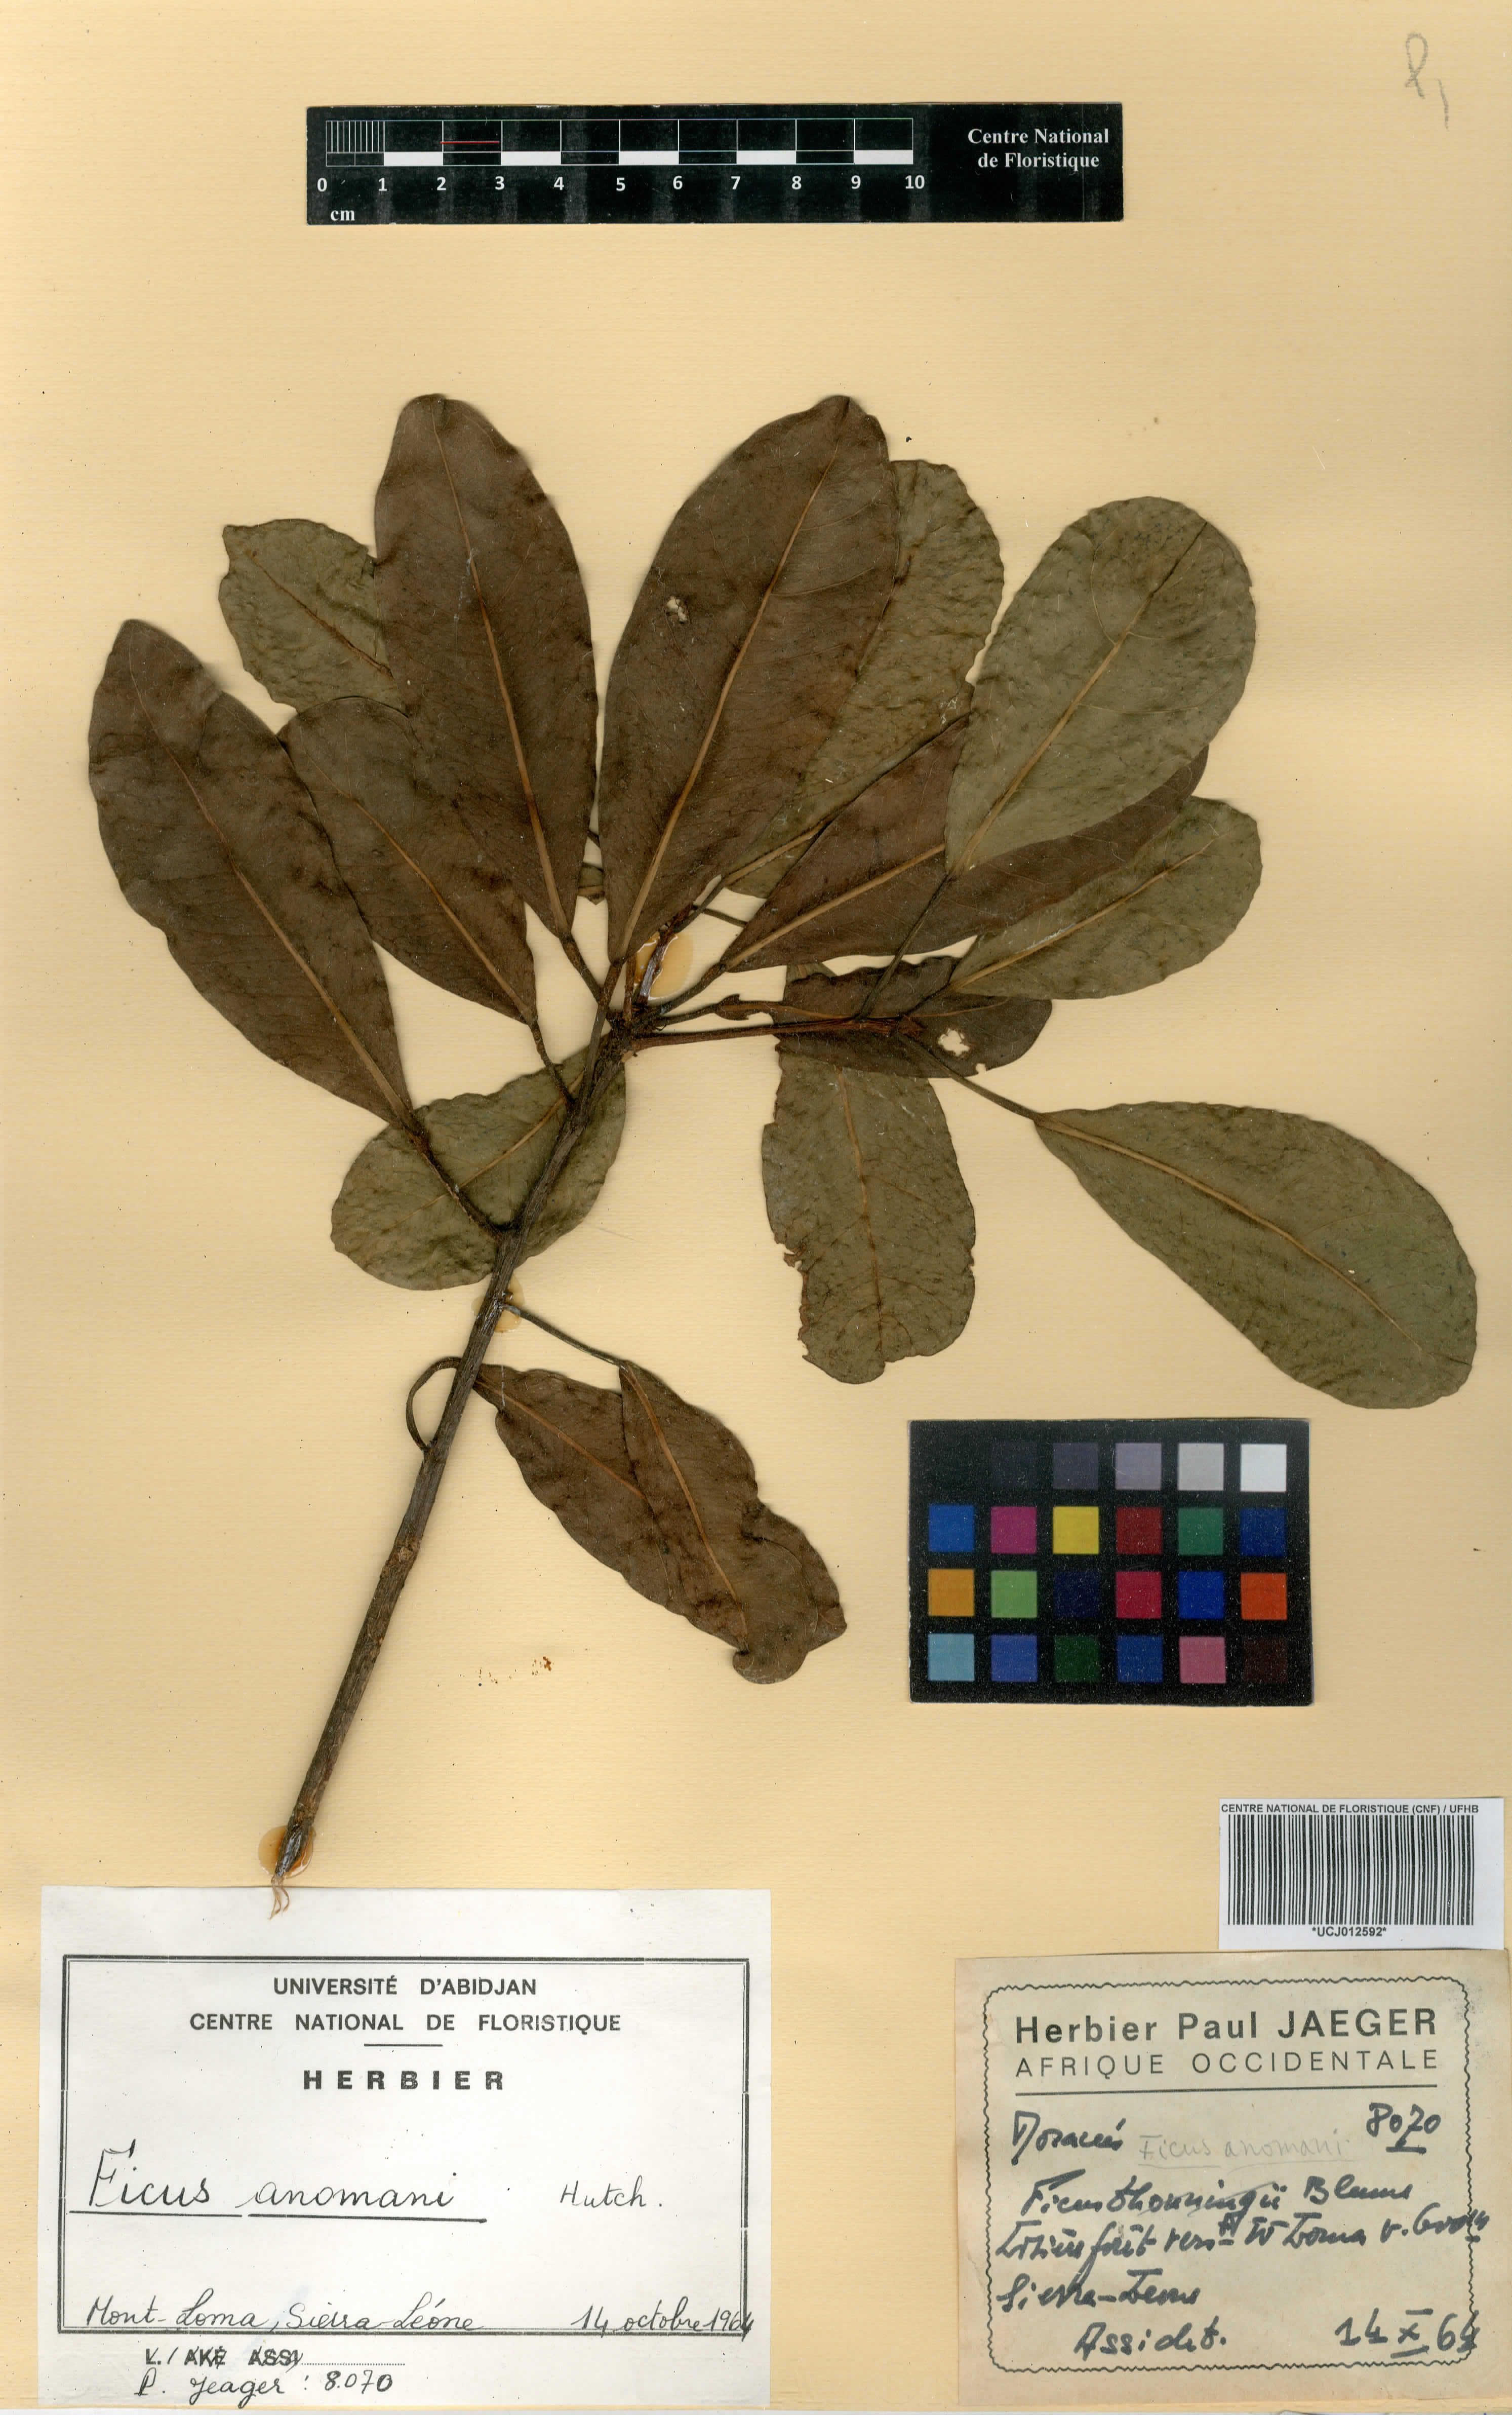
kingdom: Plantae
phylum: Tracheophyta
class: Magnoliopsida
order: Rosales
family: Moraceae
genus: Ficus
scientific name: Ficus craterostoma
